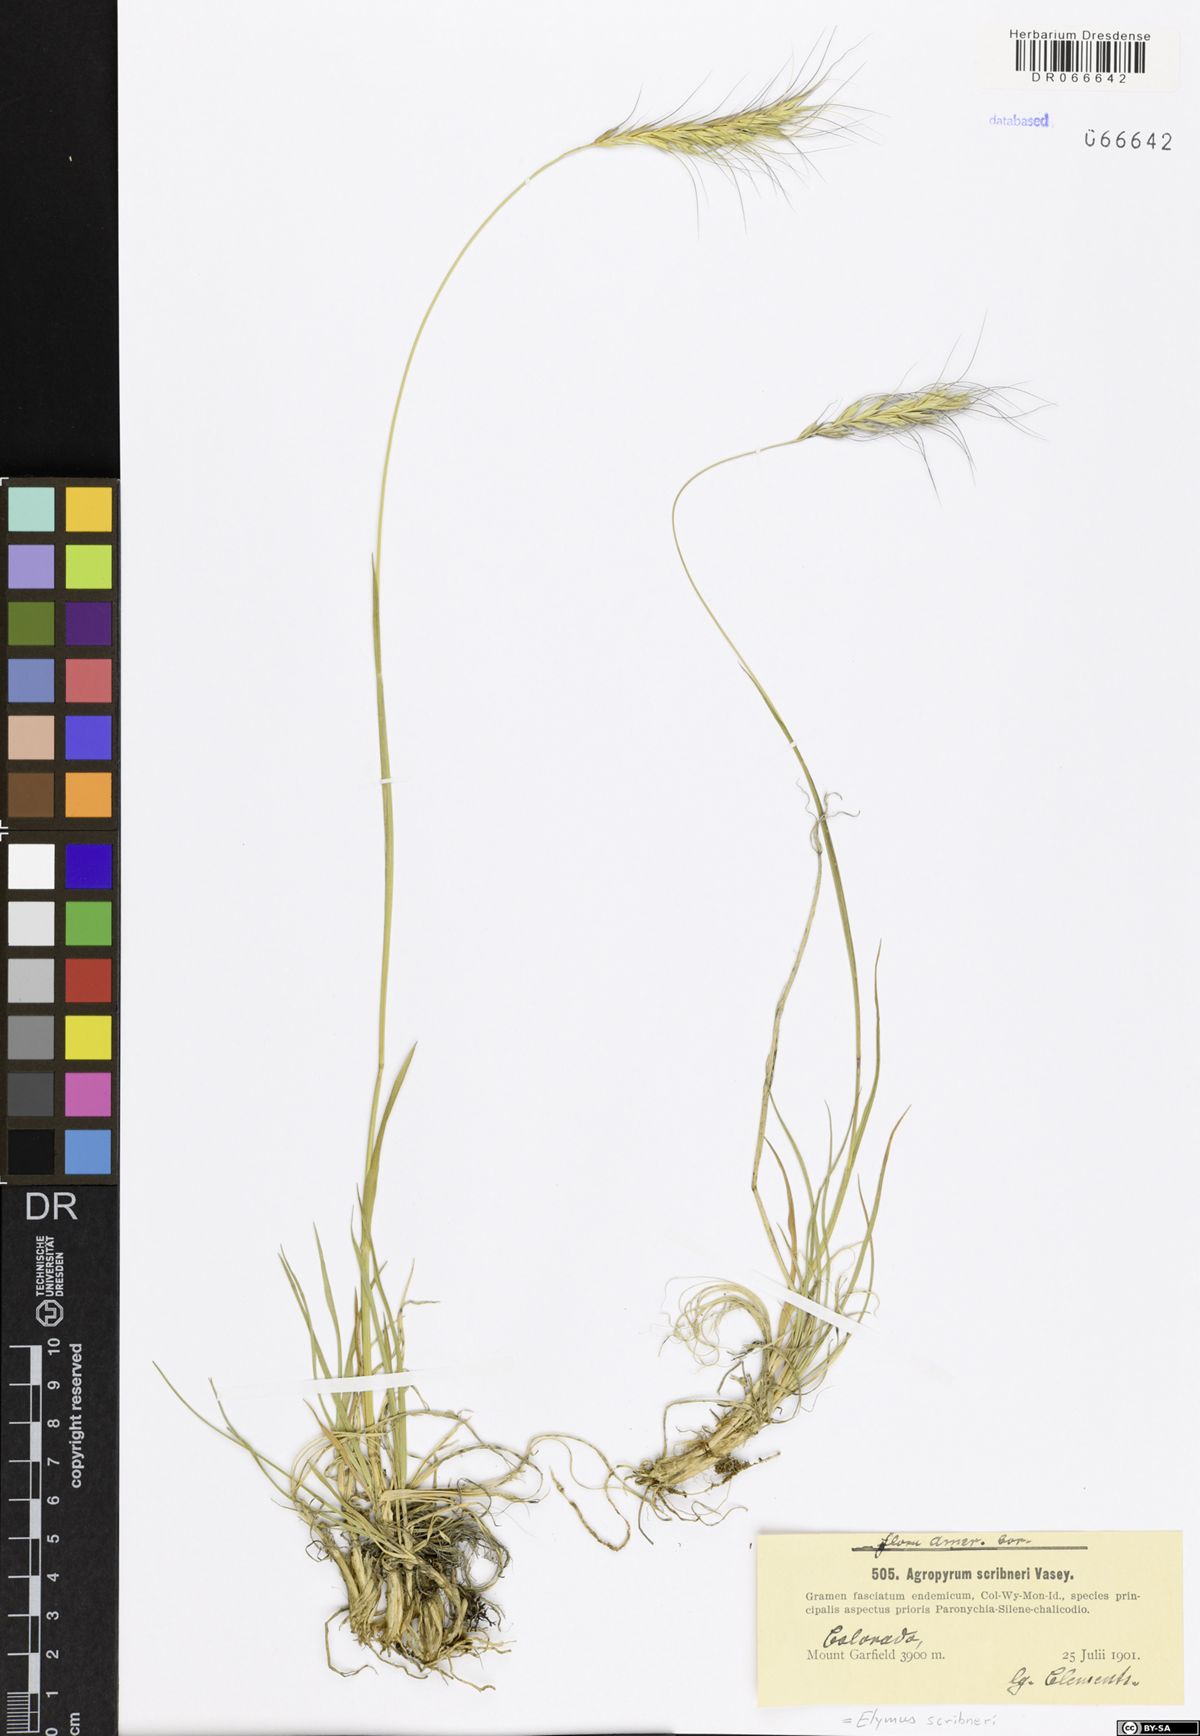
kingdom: Plantae
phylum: Tracheophyta
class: Liliopsida
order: Poales
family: Poaceae
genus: Elymus
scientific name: Elymus scribneri
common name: Scribner's wheatgrass
